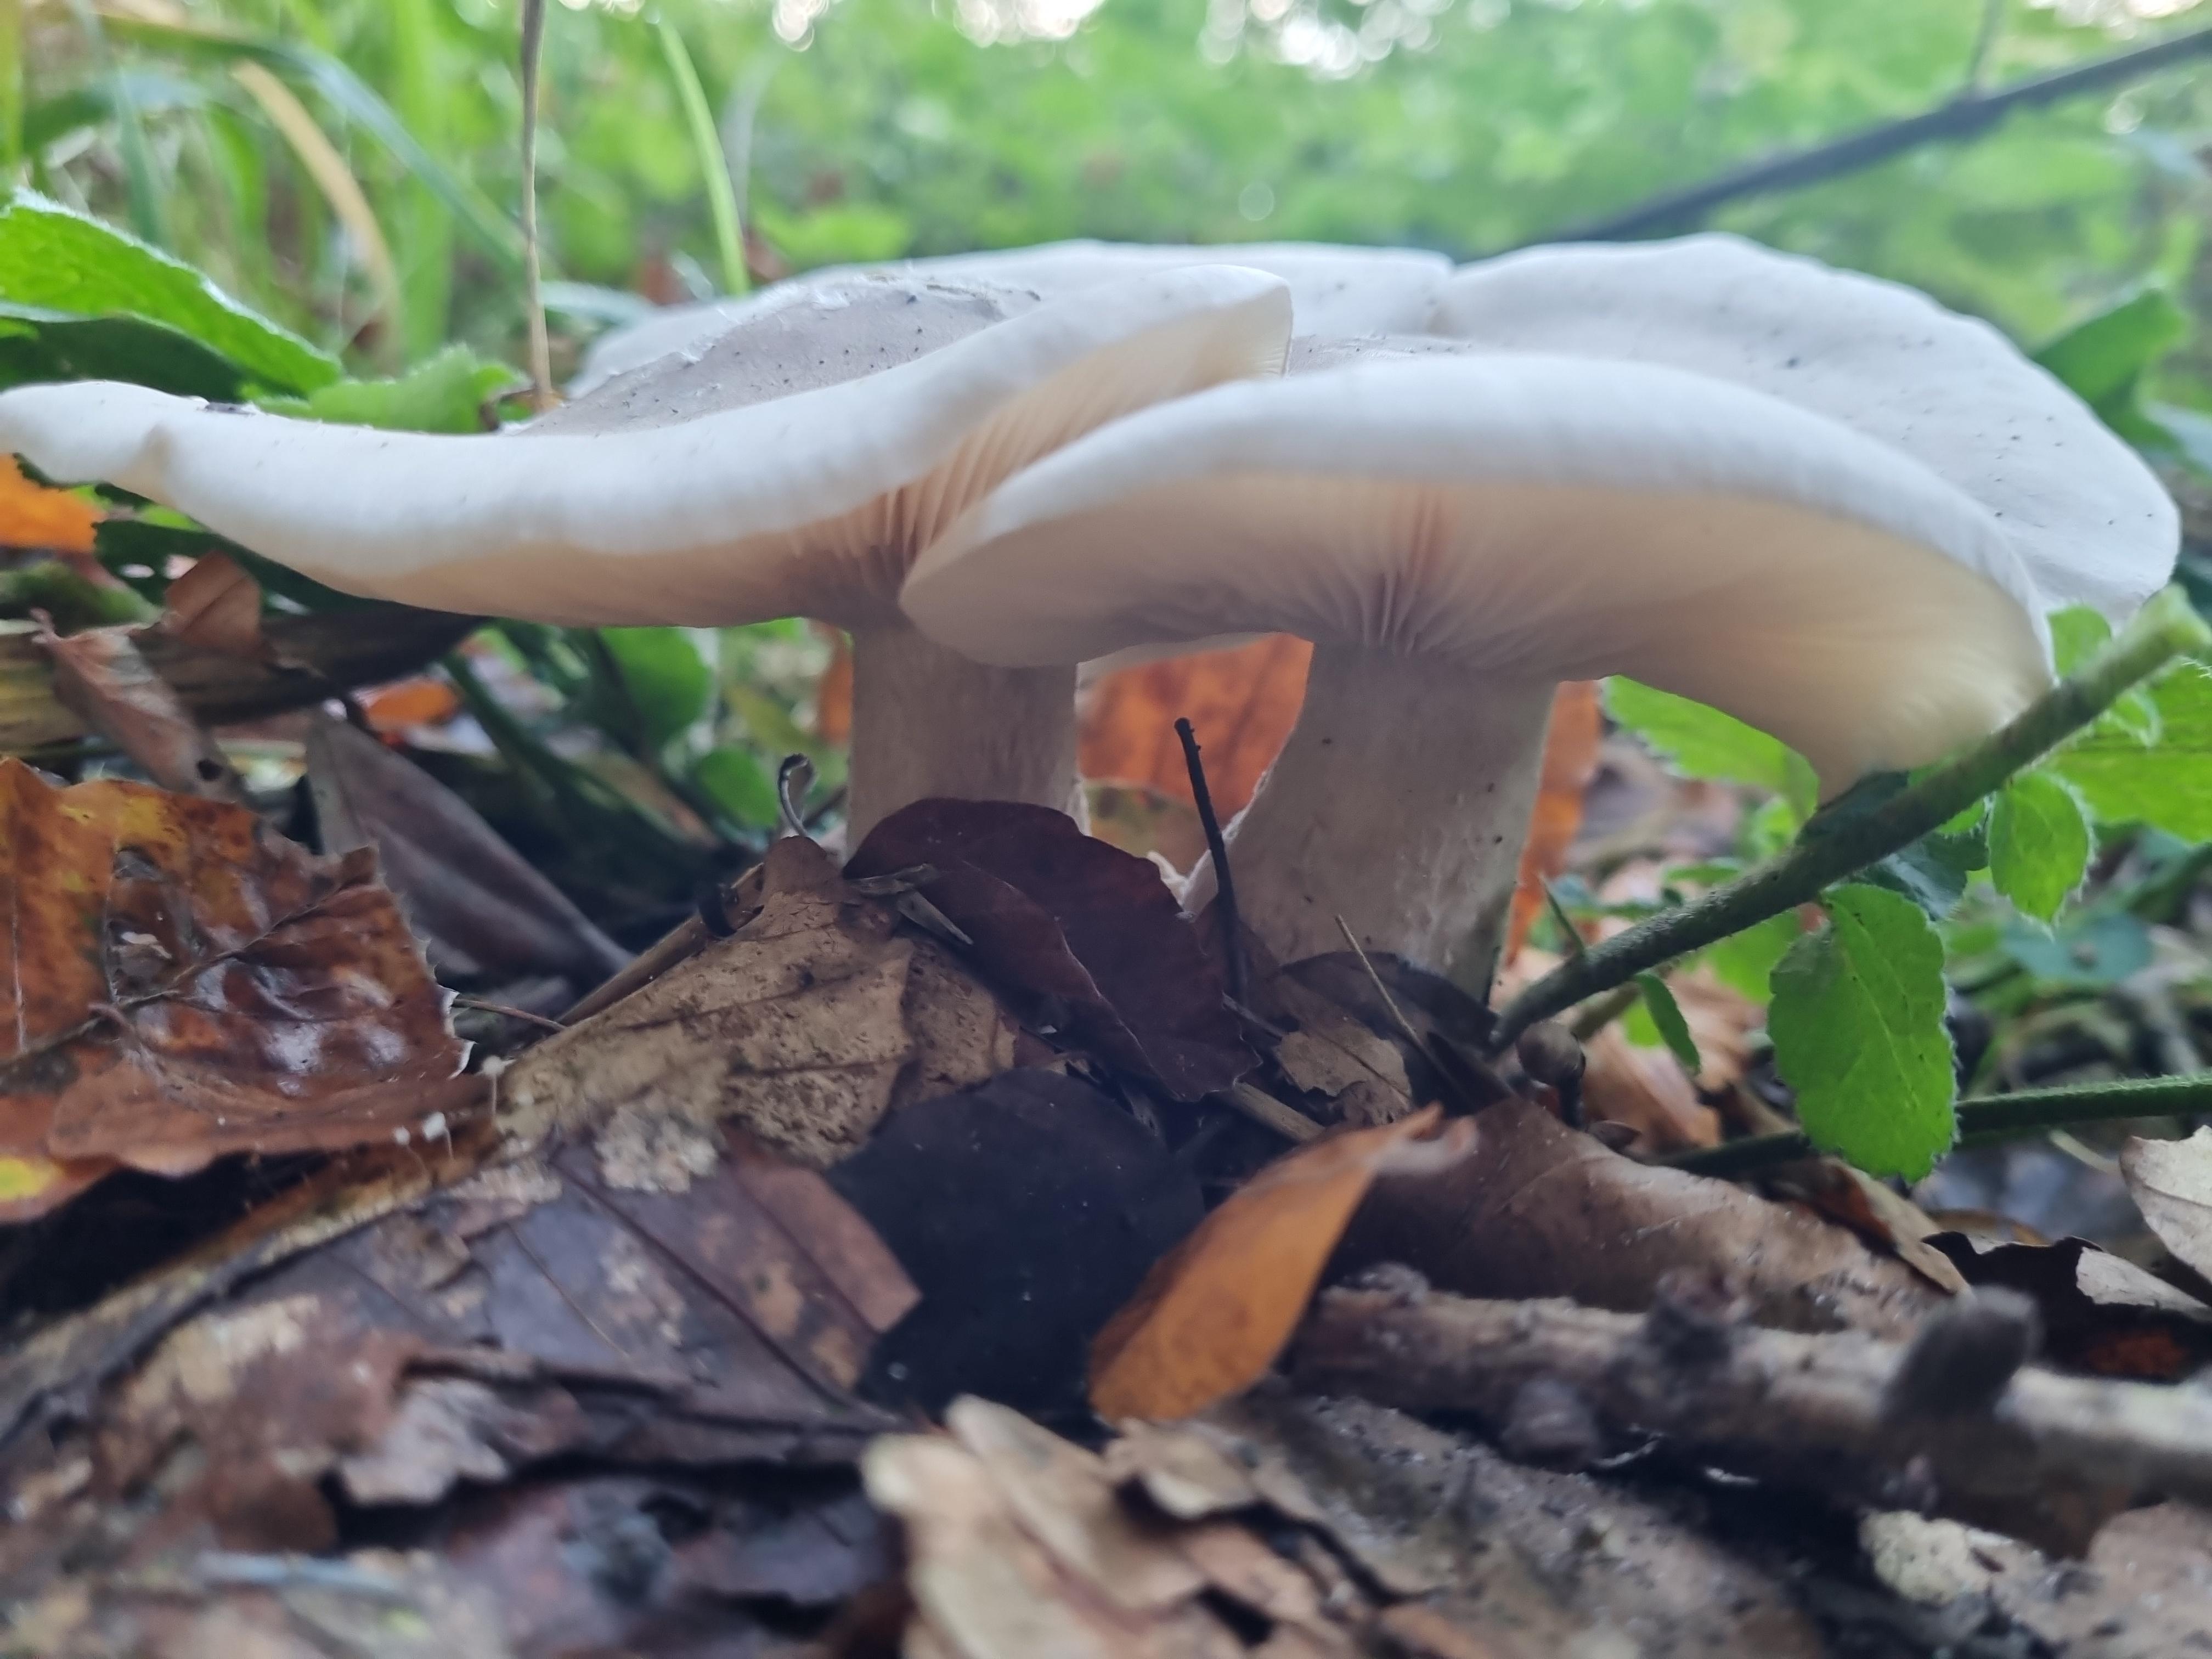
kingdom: Fungi
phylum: Basidiomycota
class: Agaricomycetes
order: Agaricales
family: Tricholomataceae
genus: Clitocybe
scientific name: Clitocybe nebularis
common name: tåge-tragthat
